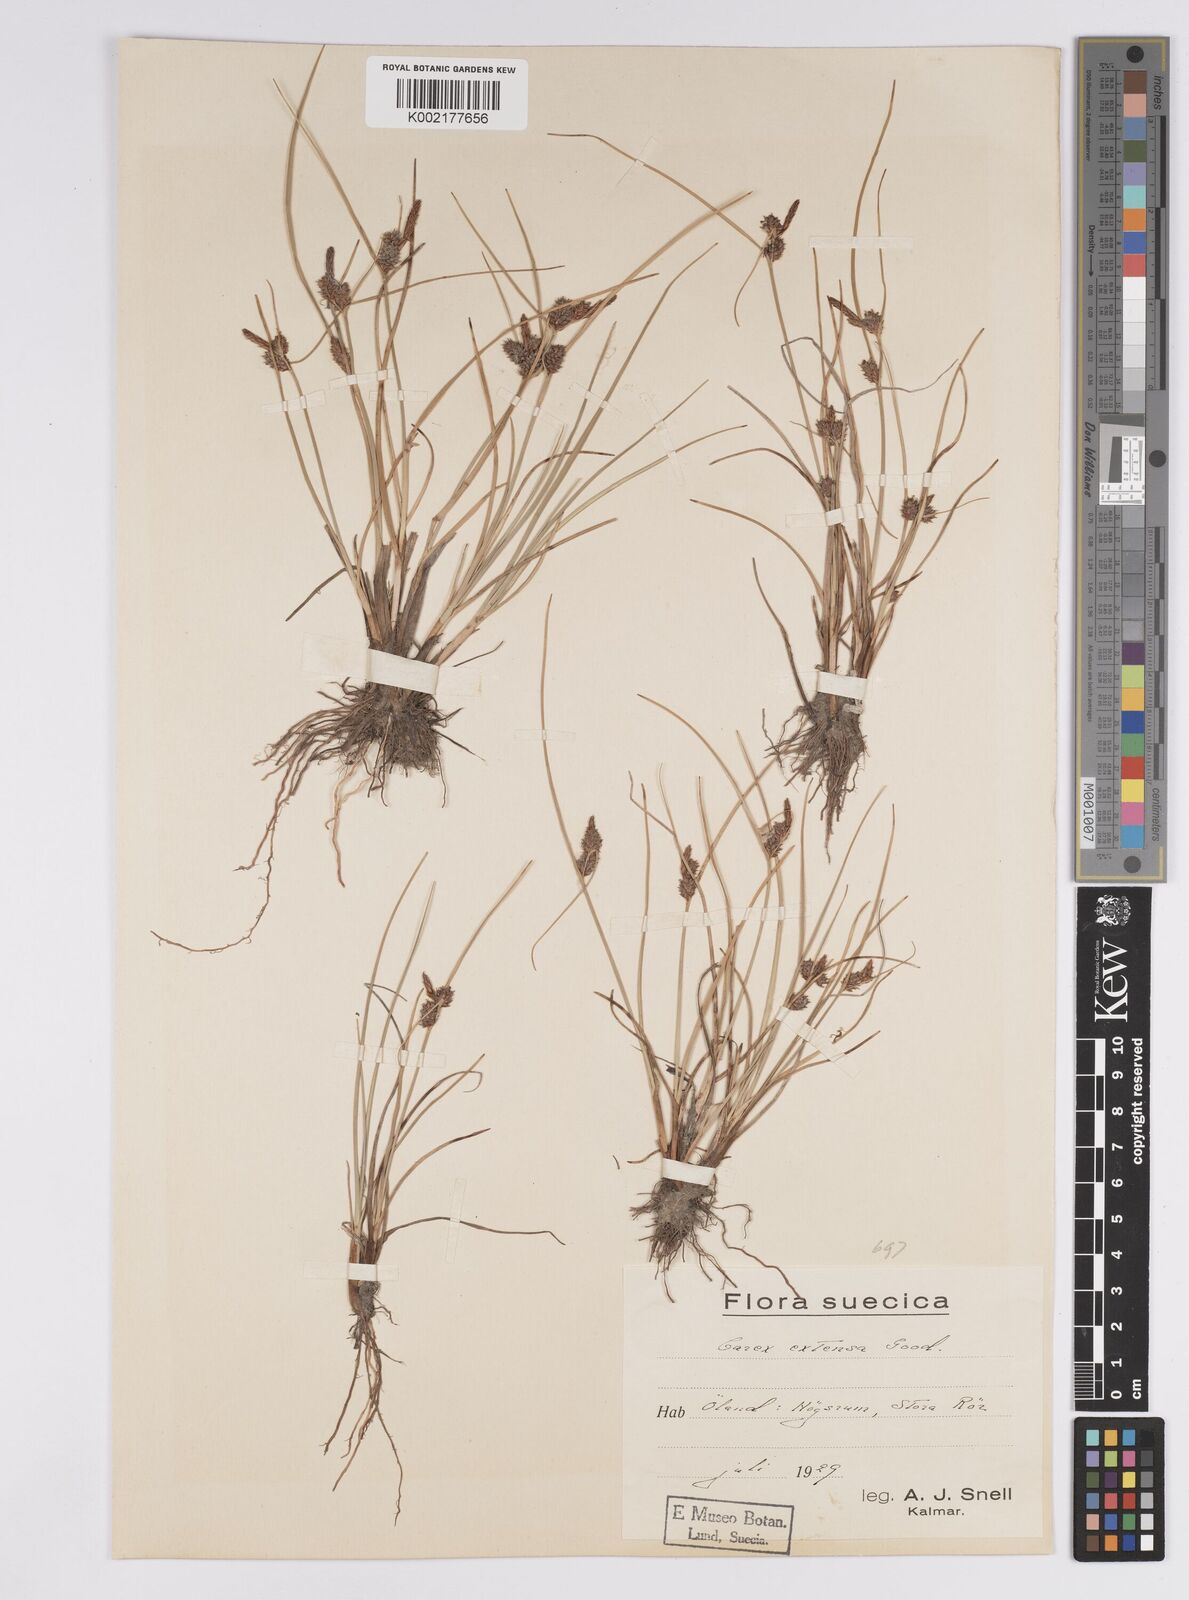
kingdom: Plantae
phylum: Tracheophyta
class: Liliopsida
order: Poales
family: Cyperaceae
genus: Carex
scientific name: Carex extensa
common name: Long-bracted sedge
